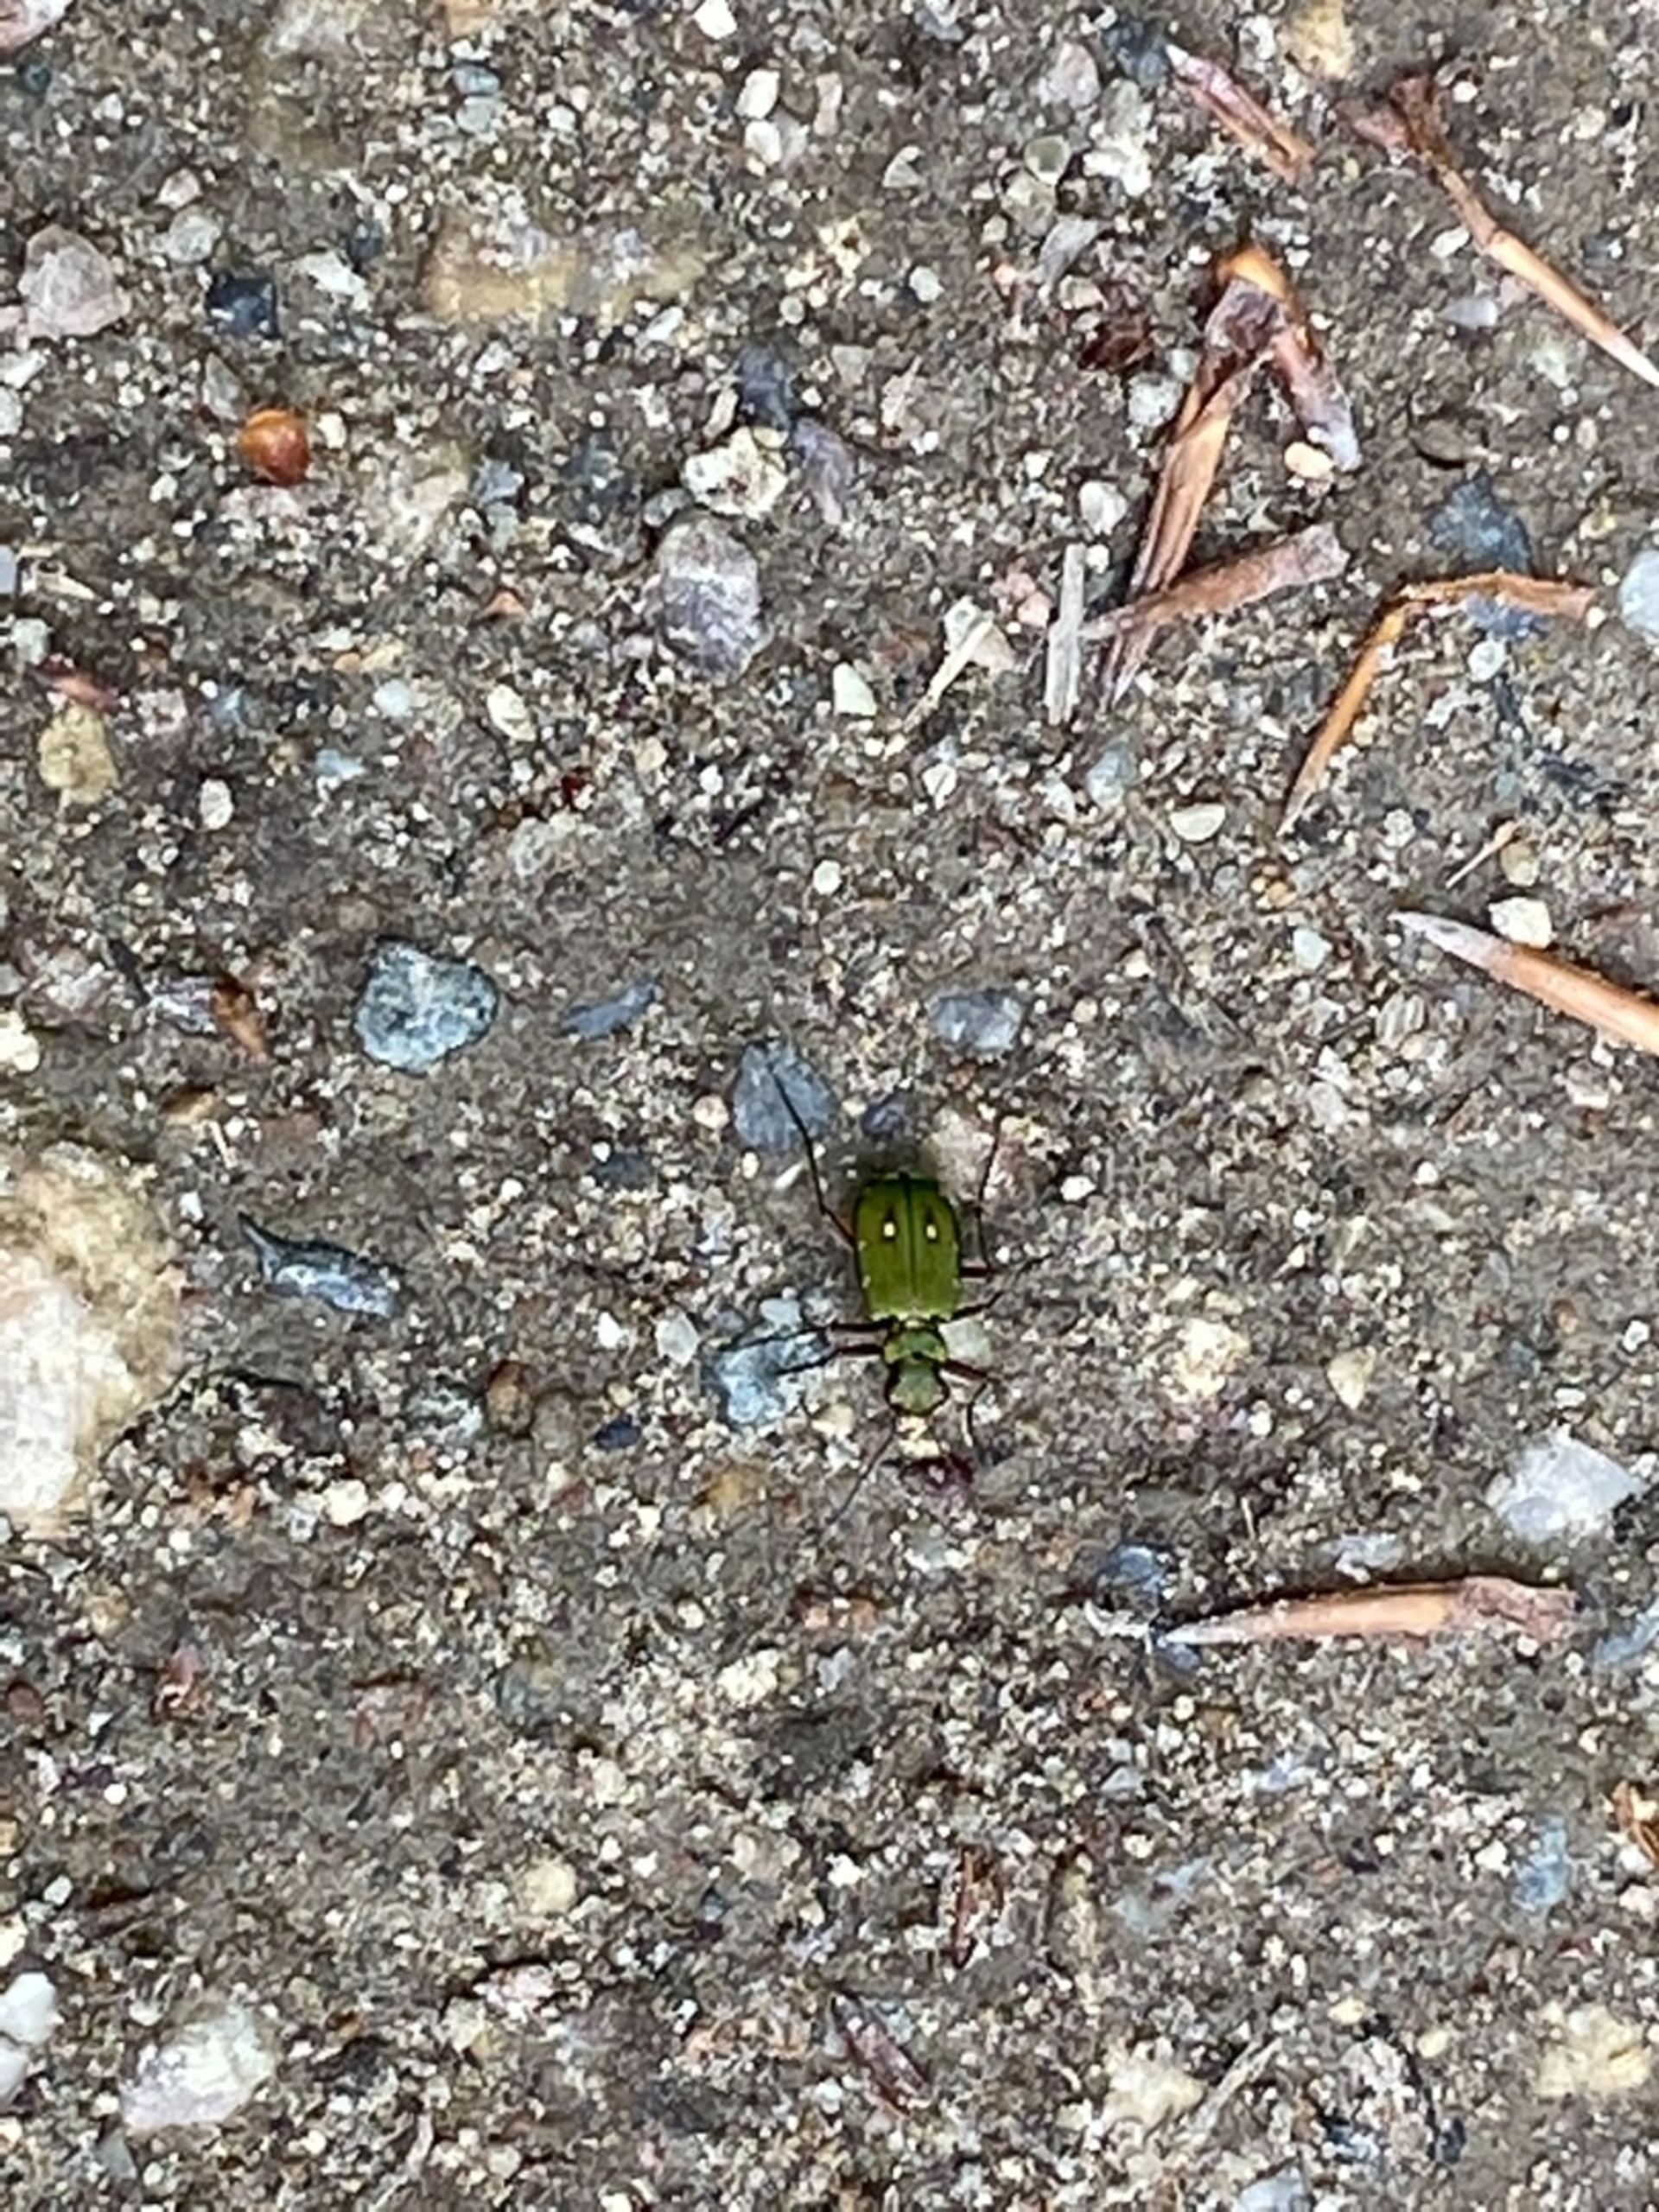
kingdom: Animalia
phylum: Arthropoda
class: Insecta
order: Coleoptera
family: Carabidae
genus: Cicindela
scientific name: Cicindela campestris
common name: Grøn sandspringer
